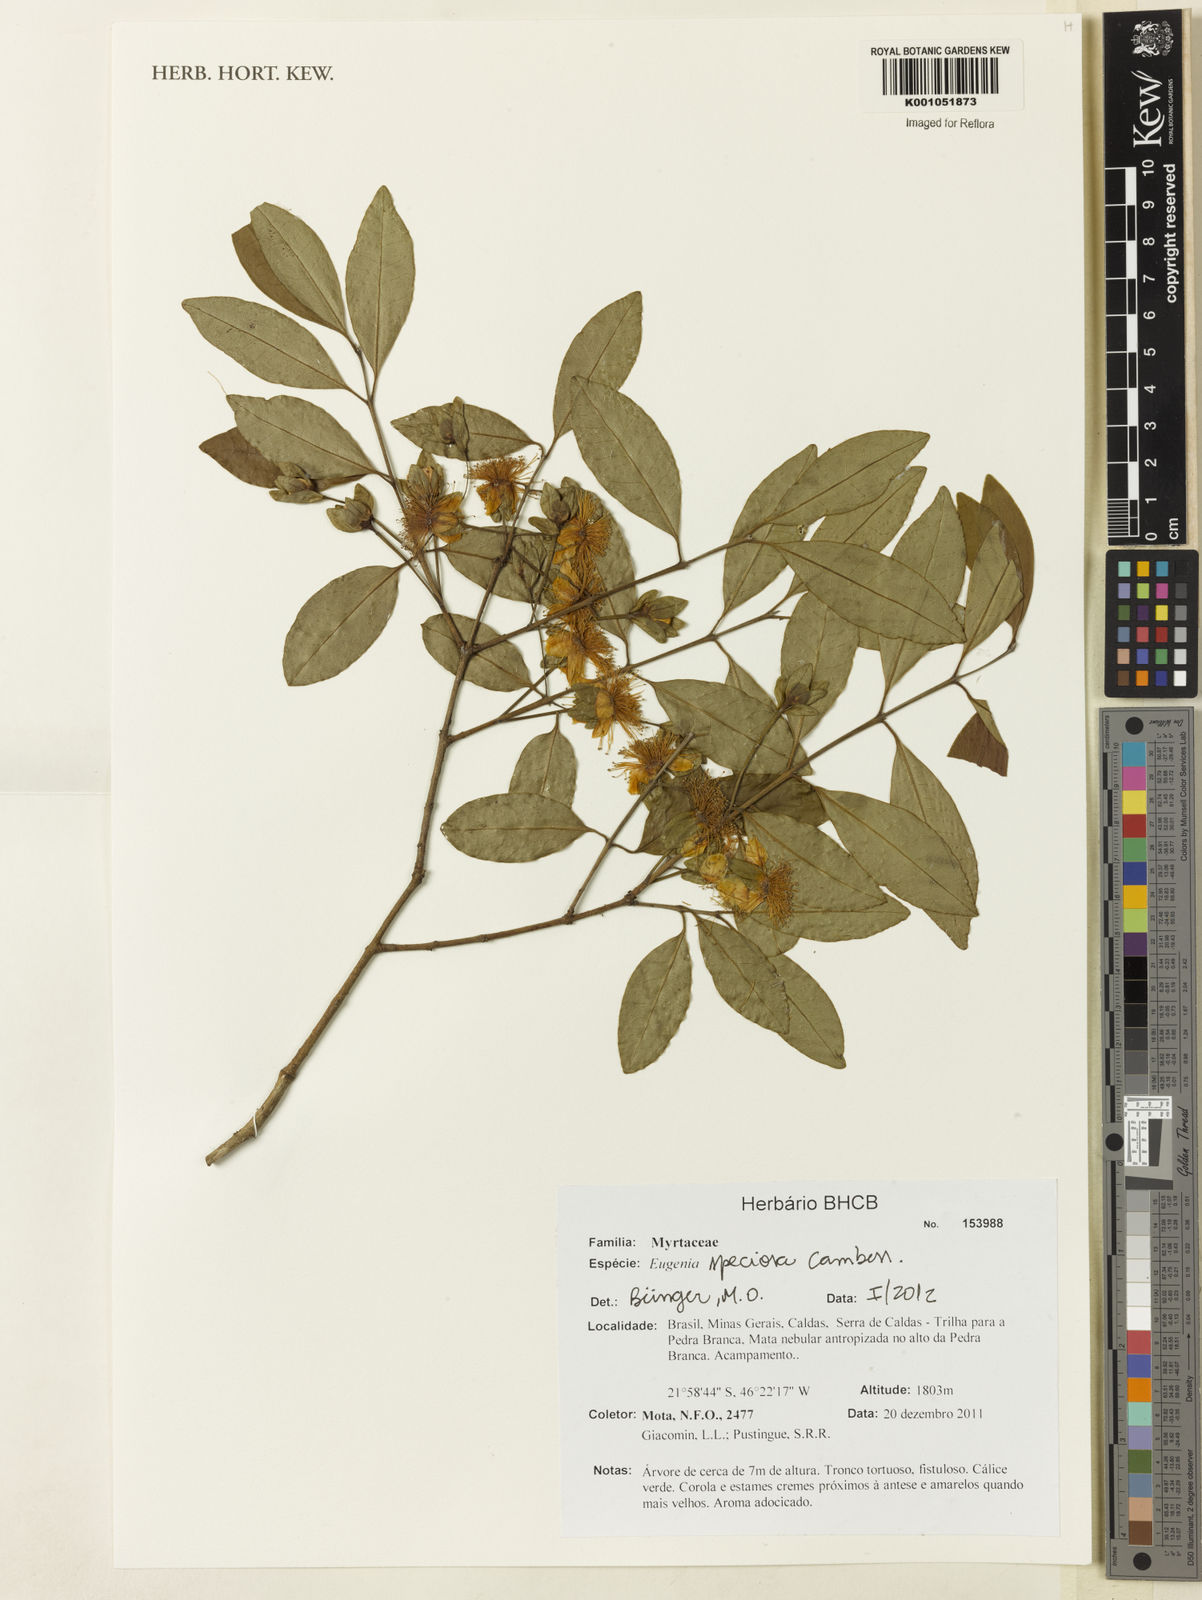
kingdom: Plantae
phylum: Tracheophyta
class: Magnoliopsida
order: Myrtales
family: Myrtaceae
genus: Eugenia
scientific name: Eugenia speciosa
